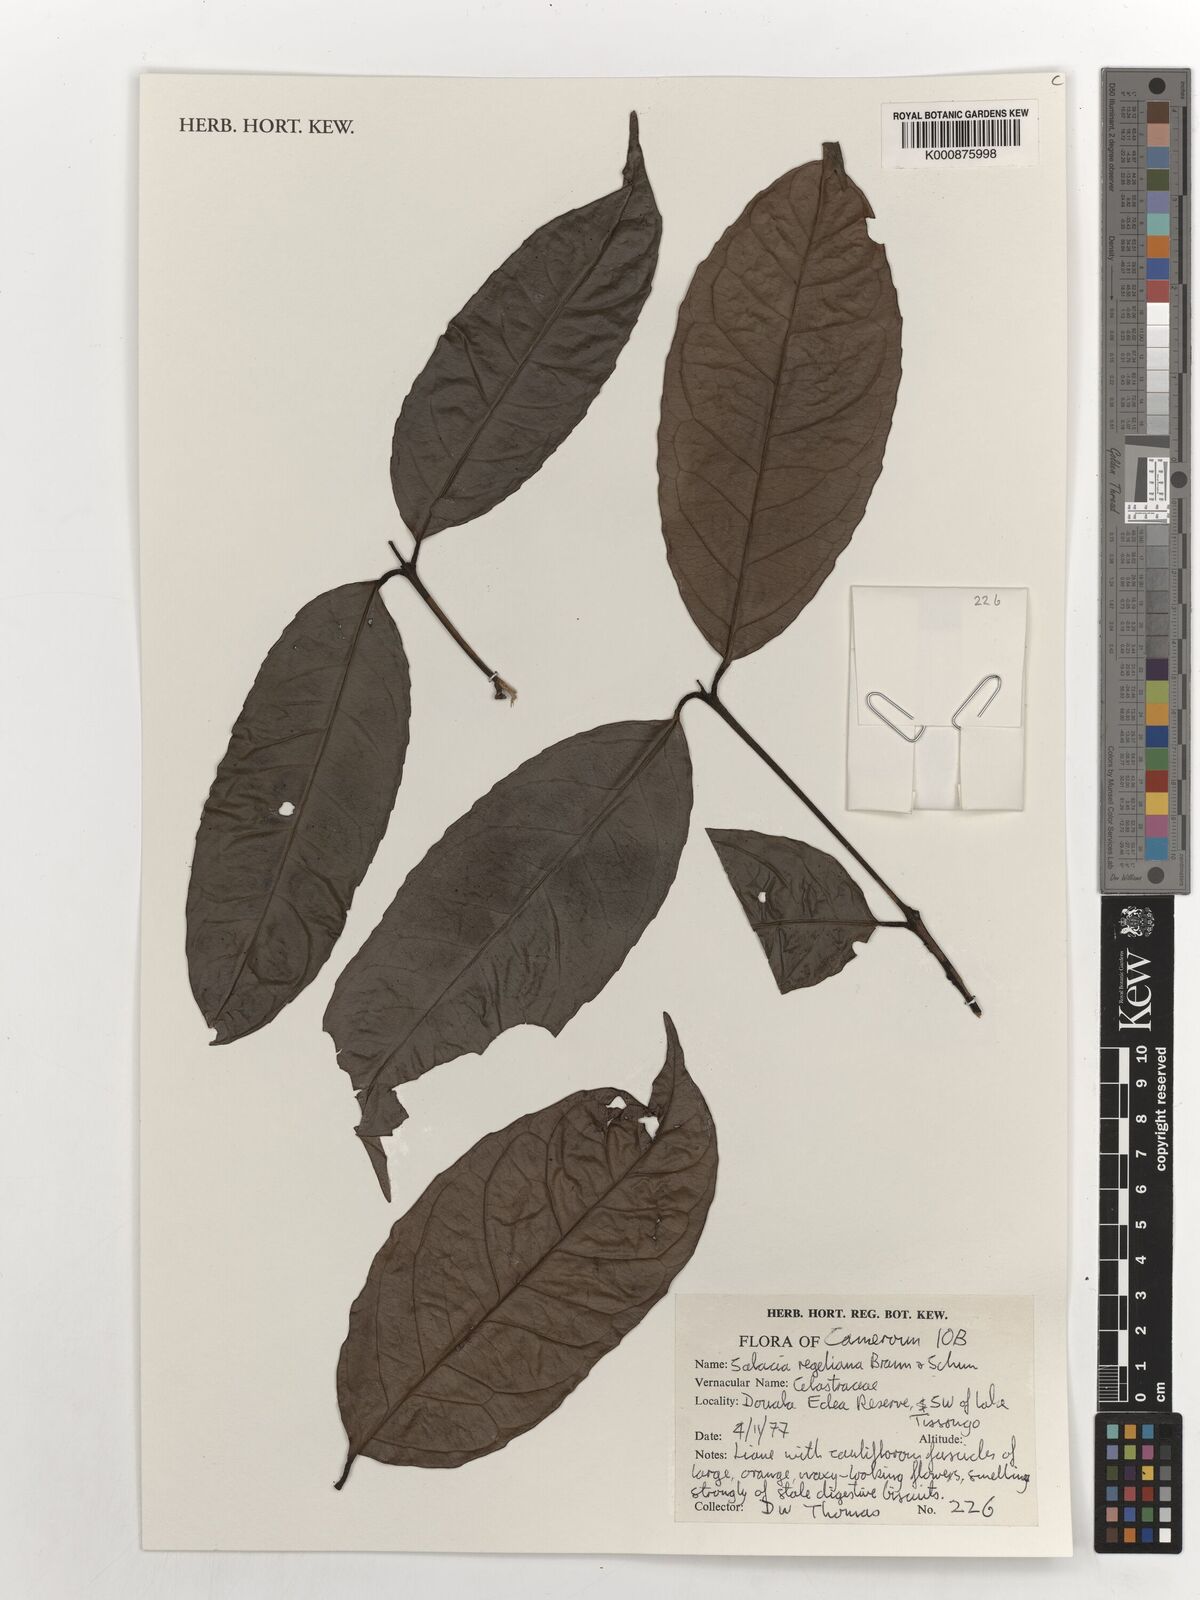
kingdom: Plantae
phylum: Tracheophyta
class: Magnoliopsida
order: Celastrales
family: Celastraceae
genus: Salacia
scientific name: Salacia regeliana
